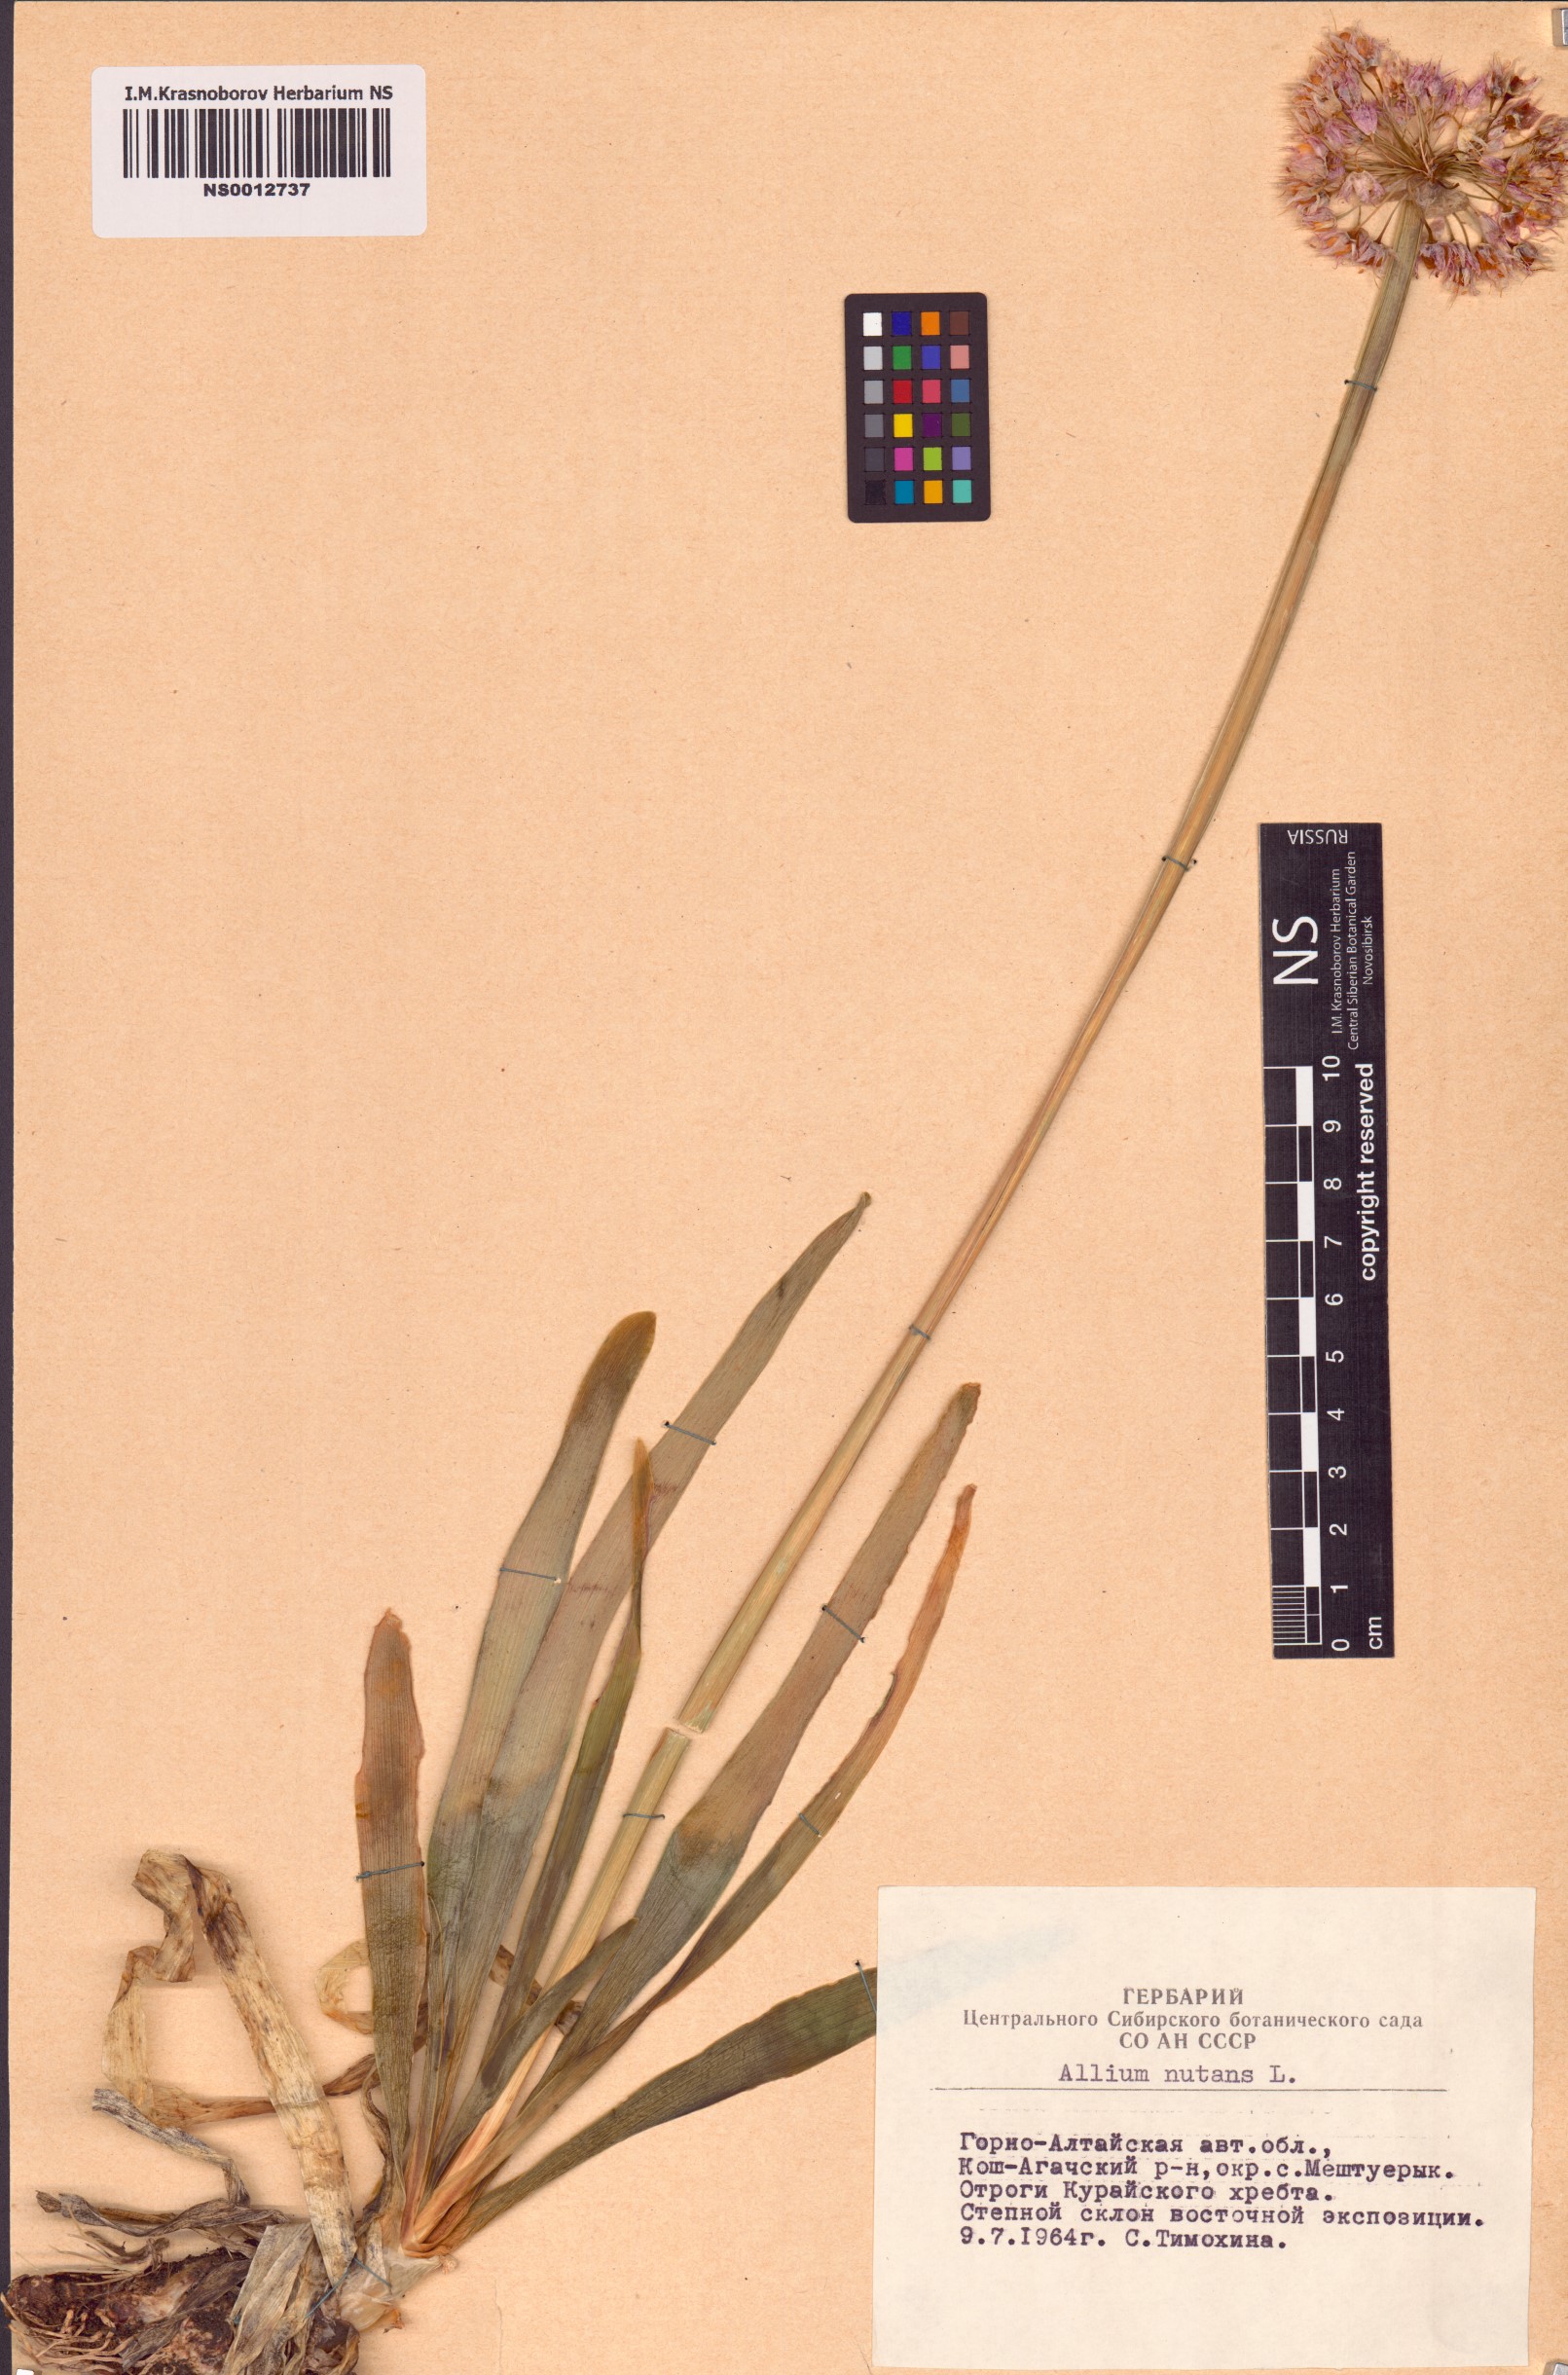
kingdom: Plantae
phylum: Tracheophyta
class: Liliopsida
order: Asparagales
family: Amaryllidaceae
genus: Allium
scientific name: Allium nutans
